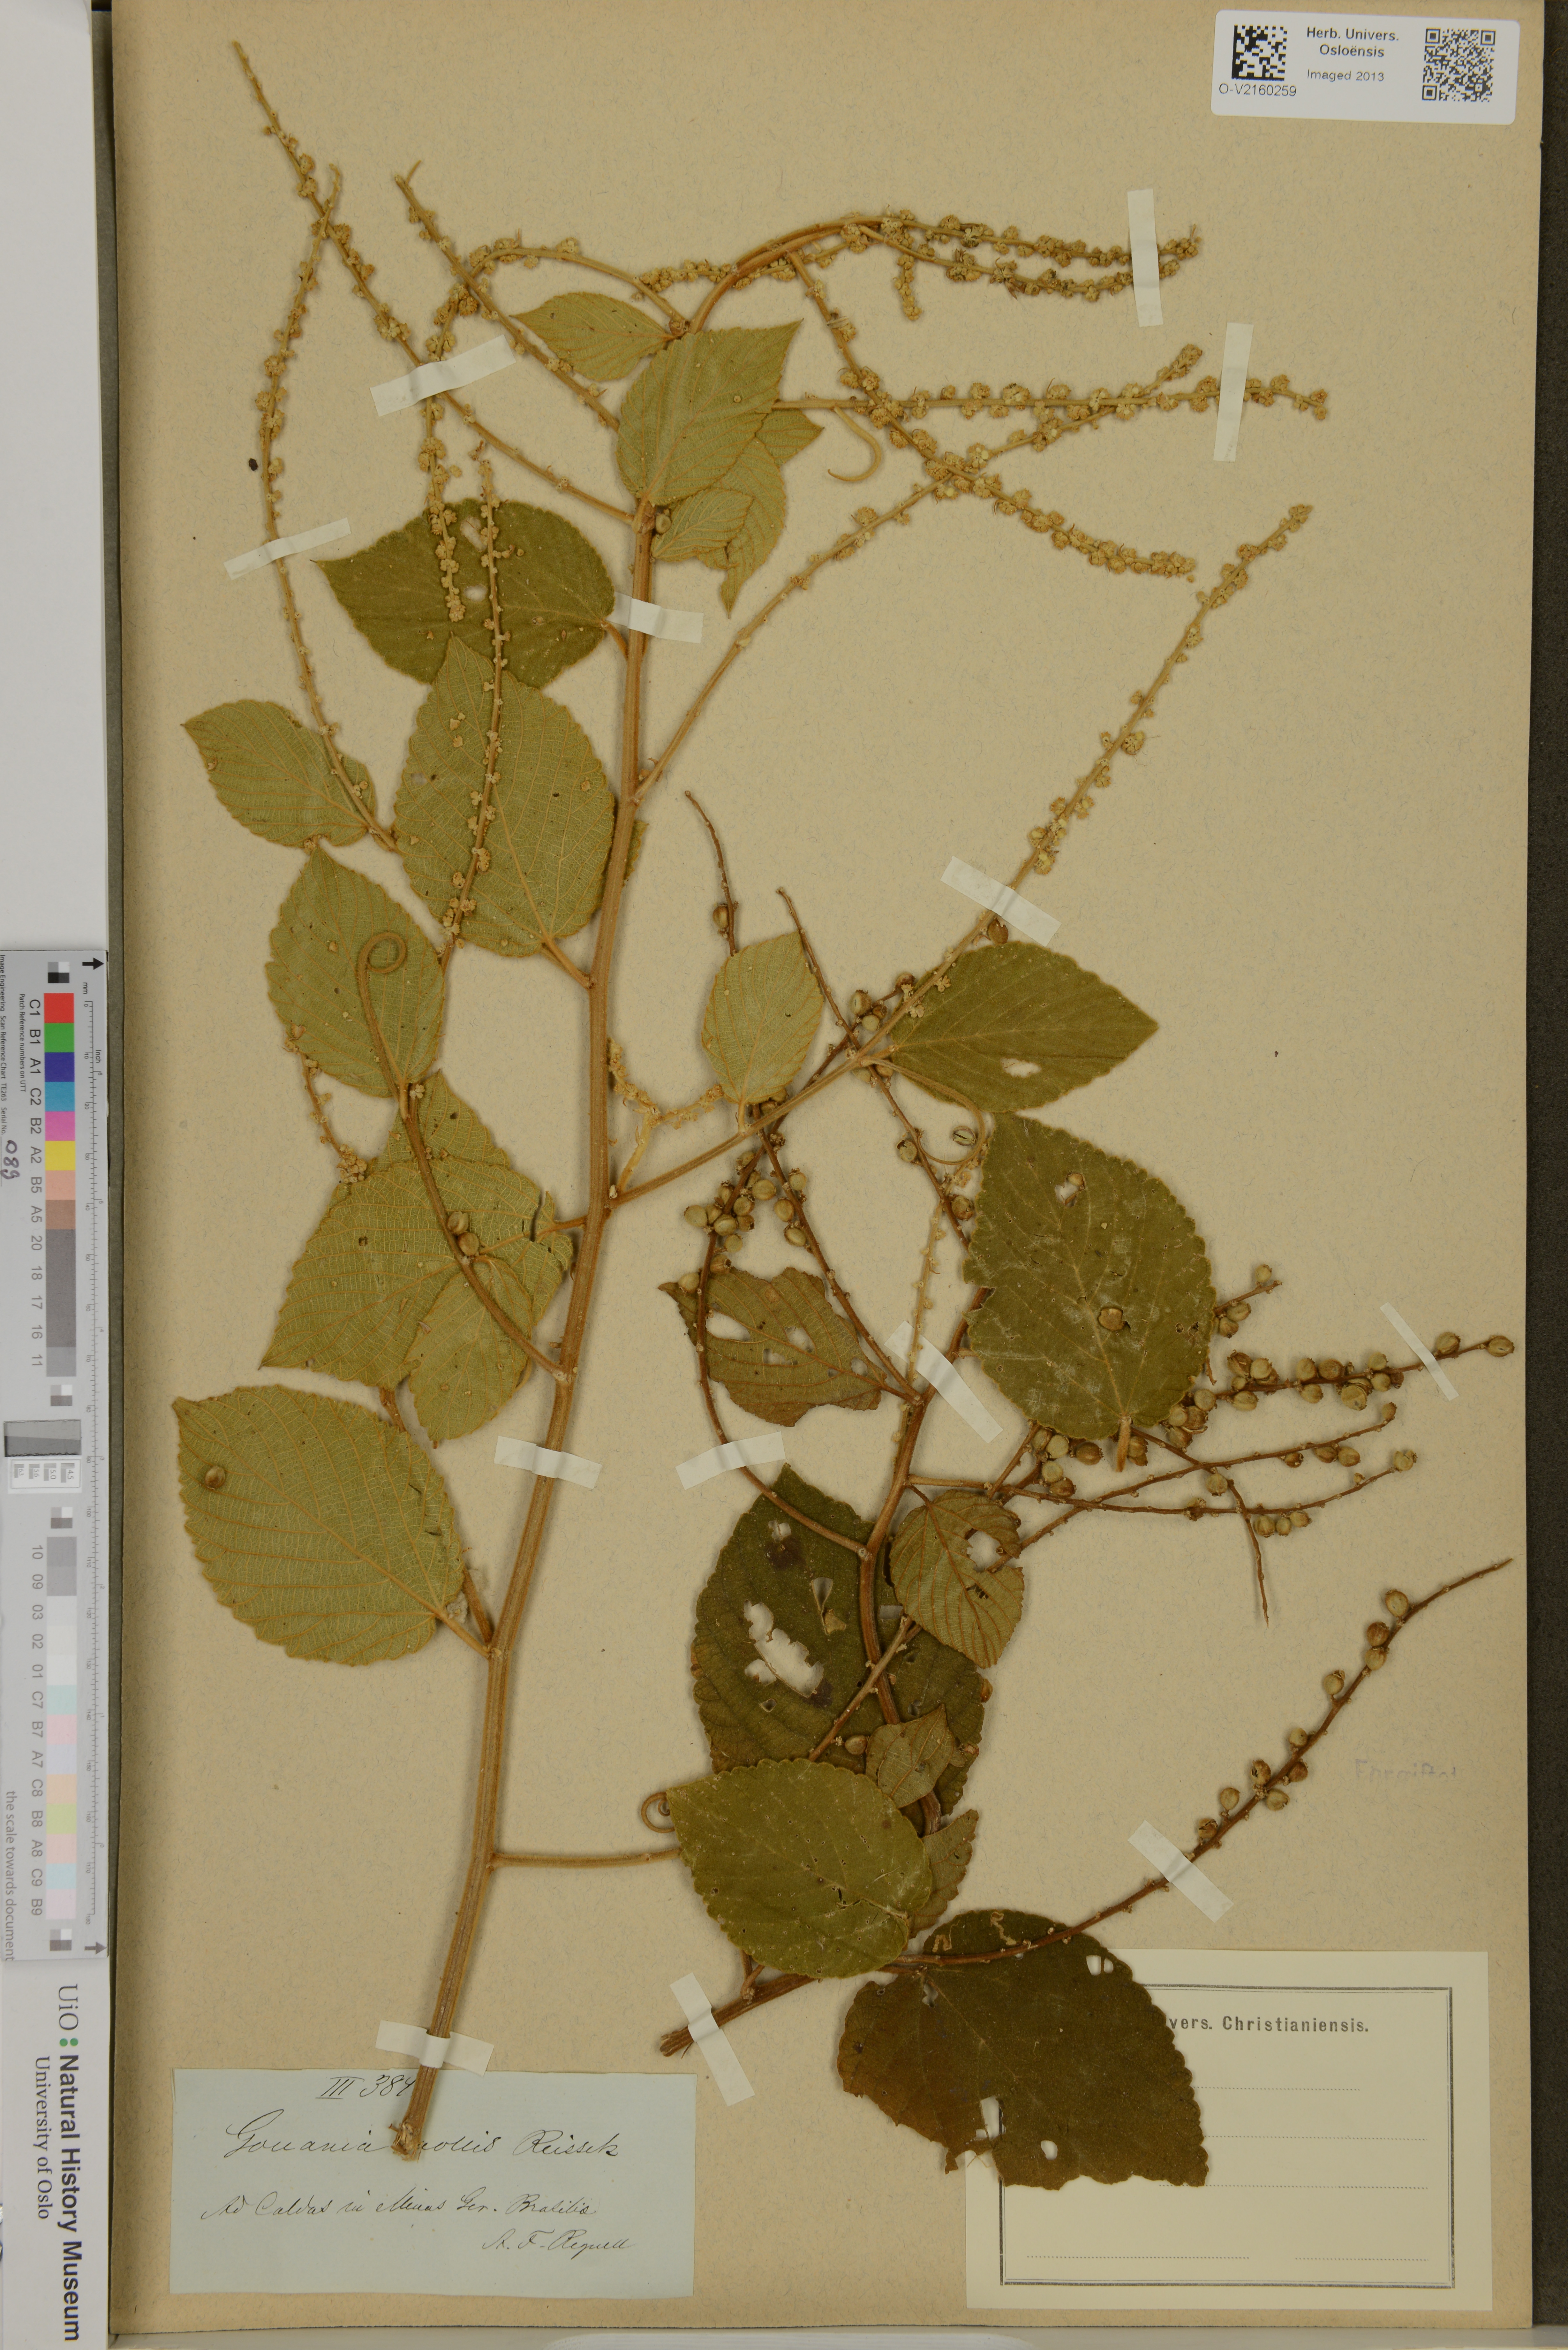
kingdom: Plantae
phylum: Tracheophyta
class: Magnoliopsida
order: Rosales
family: Rhamnaceae
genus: Gouania
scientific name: Gouania latifolia
